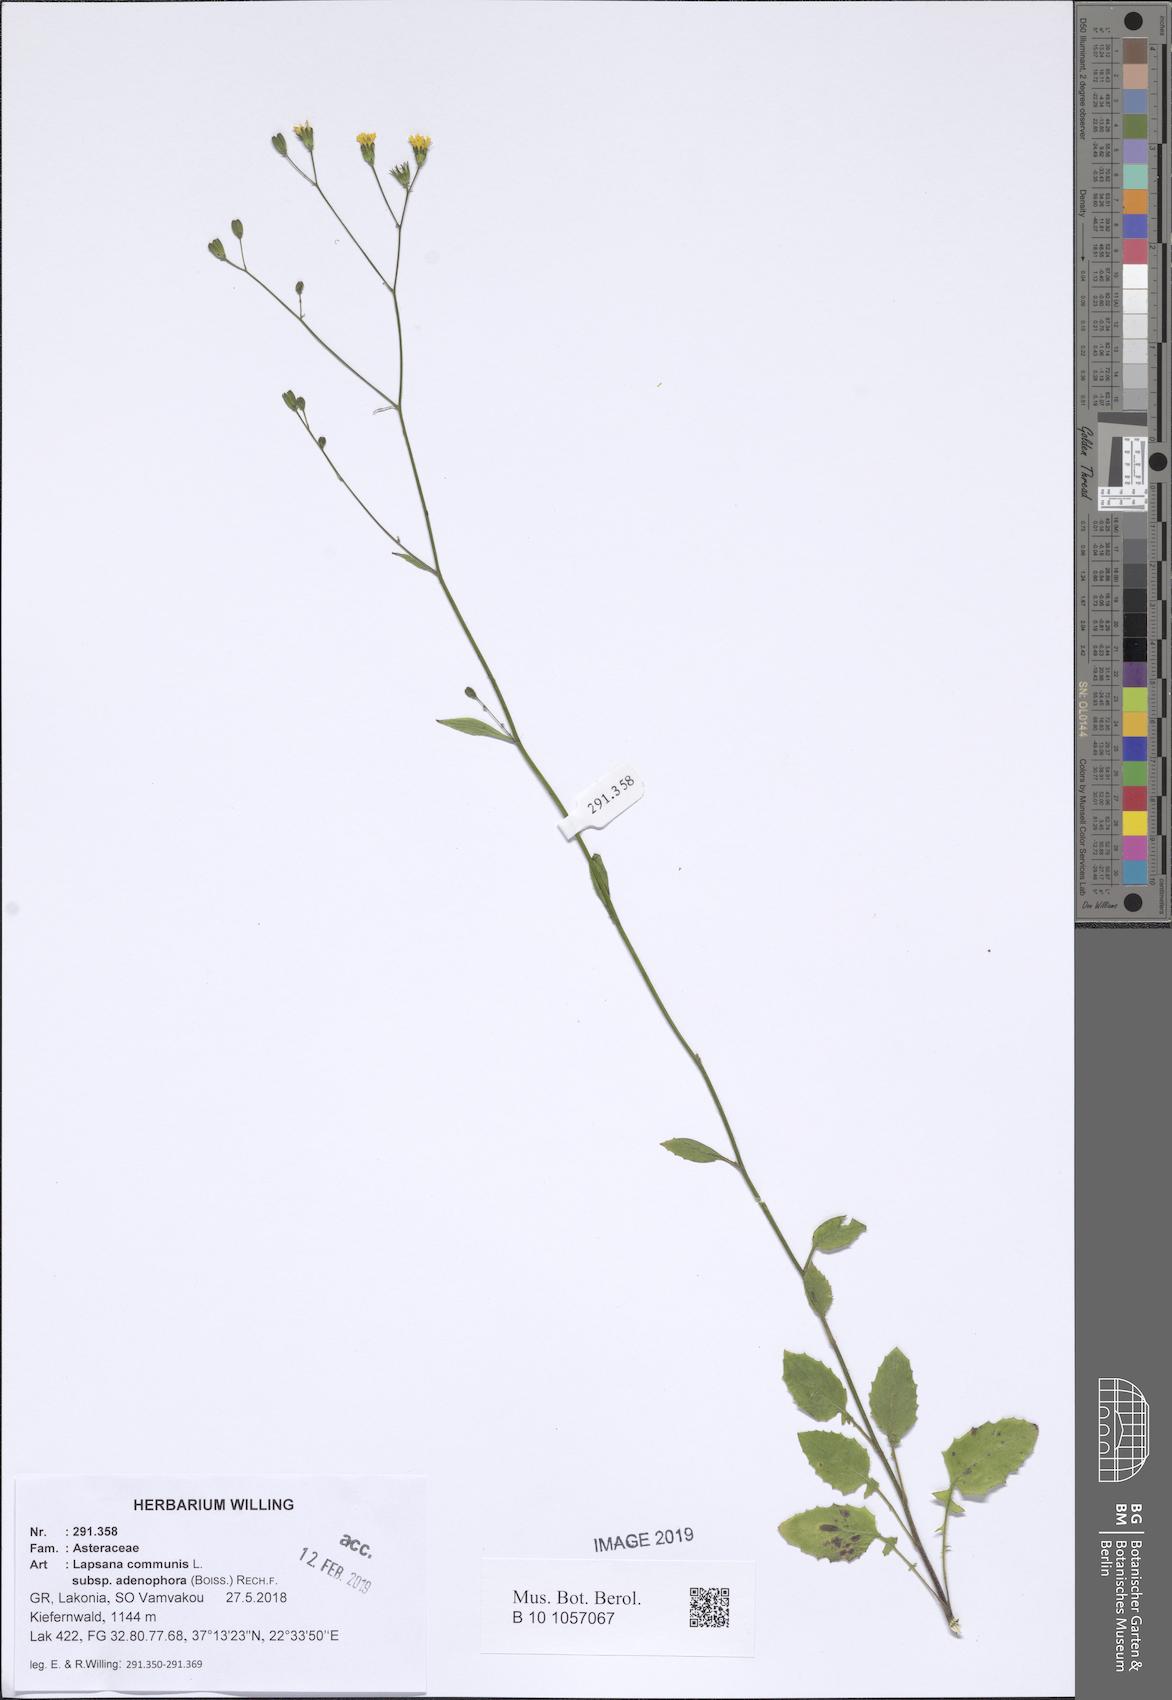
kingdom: Plantae
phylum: Tracheophyta
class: Magnoliopsida
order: Asterales
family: Asteraceae
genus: Lapsana
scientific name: Lapsana communis
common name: Nipplewort
